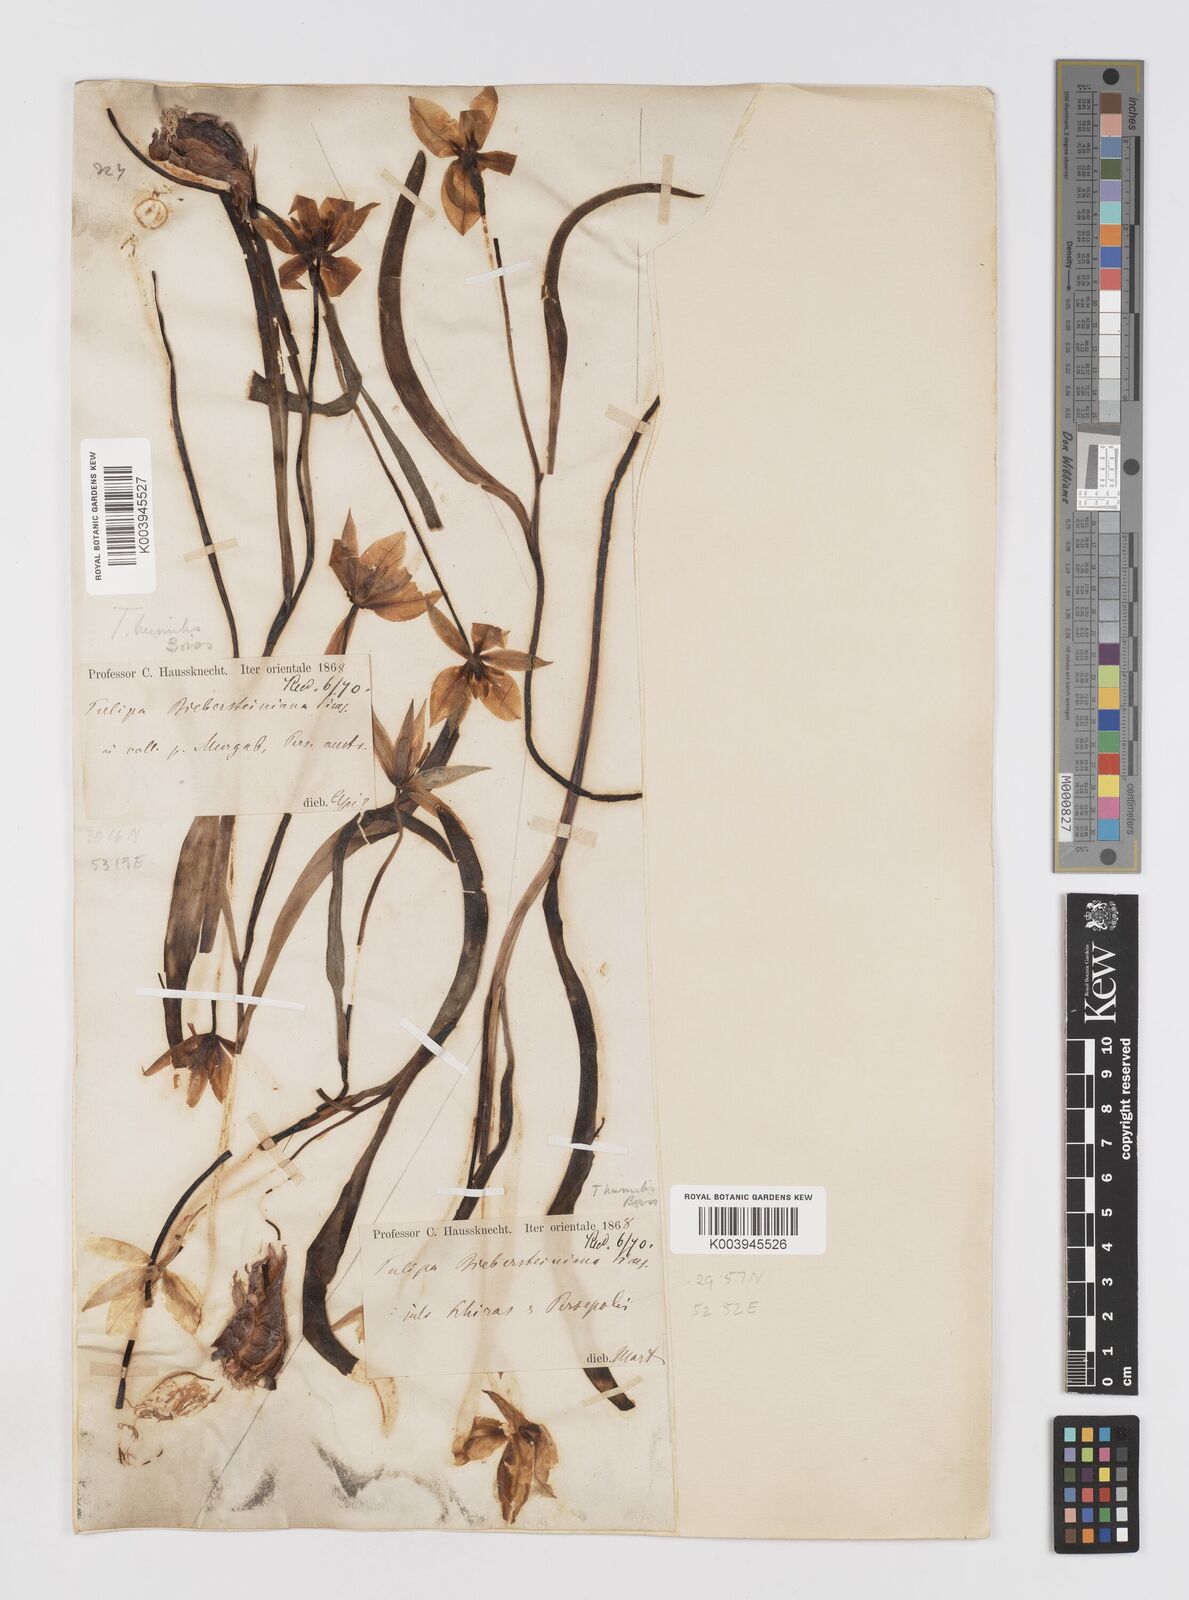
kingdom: Plantae
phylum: Tracheophyta
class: Liliopsida
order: Liliales
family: Liliaceae
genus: Tulipa
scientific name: Tulipa biflora
